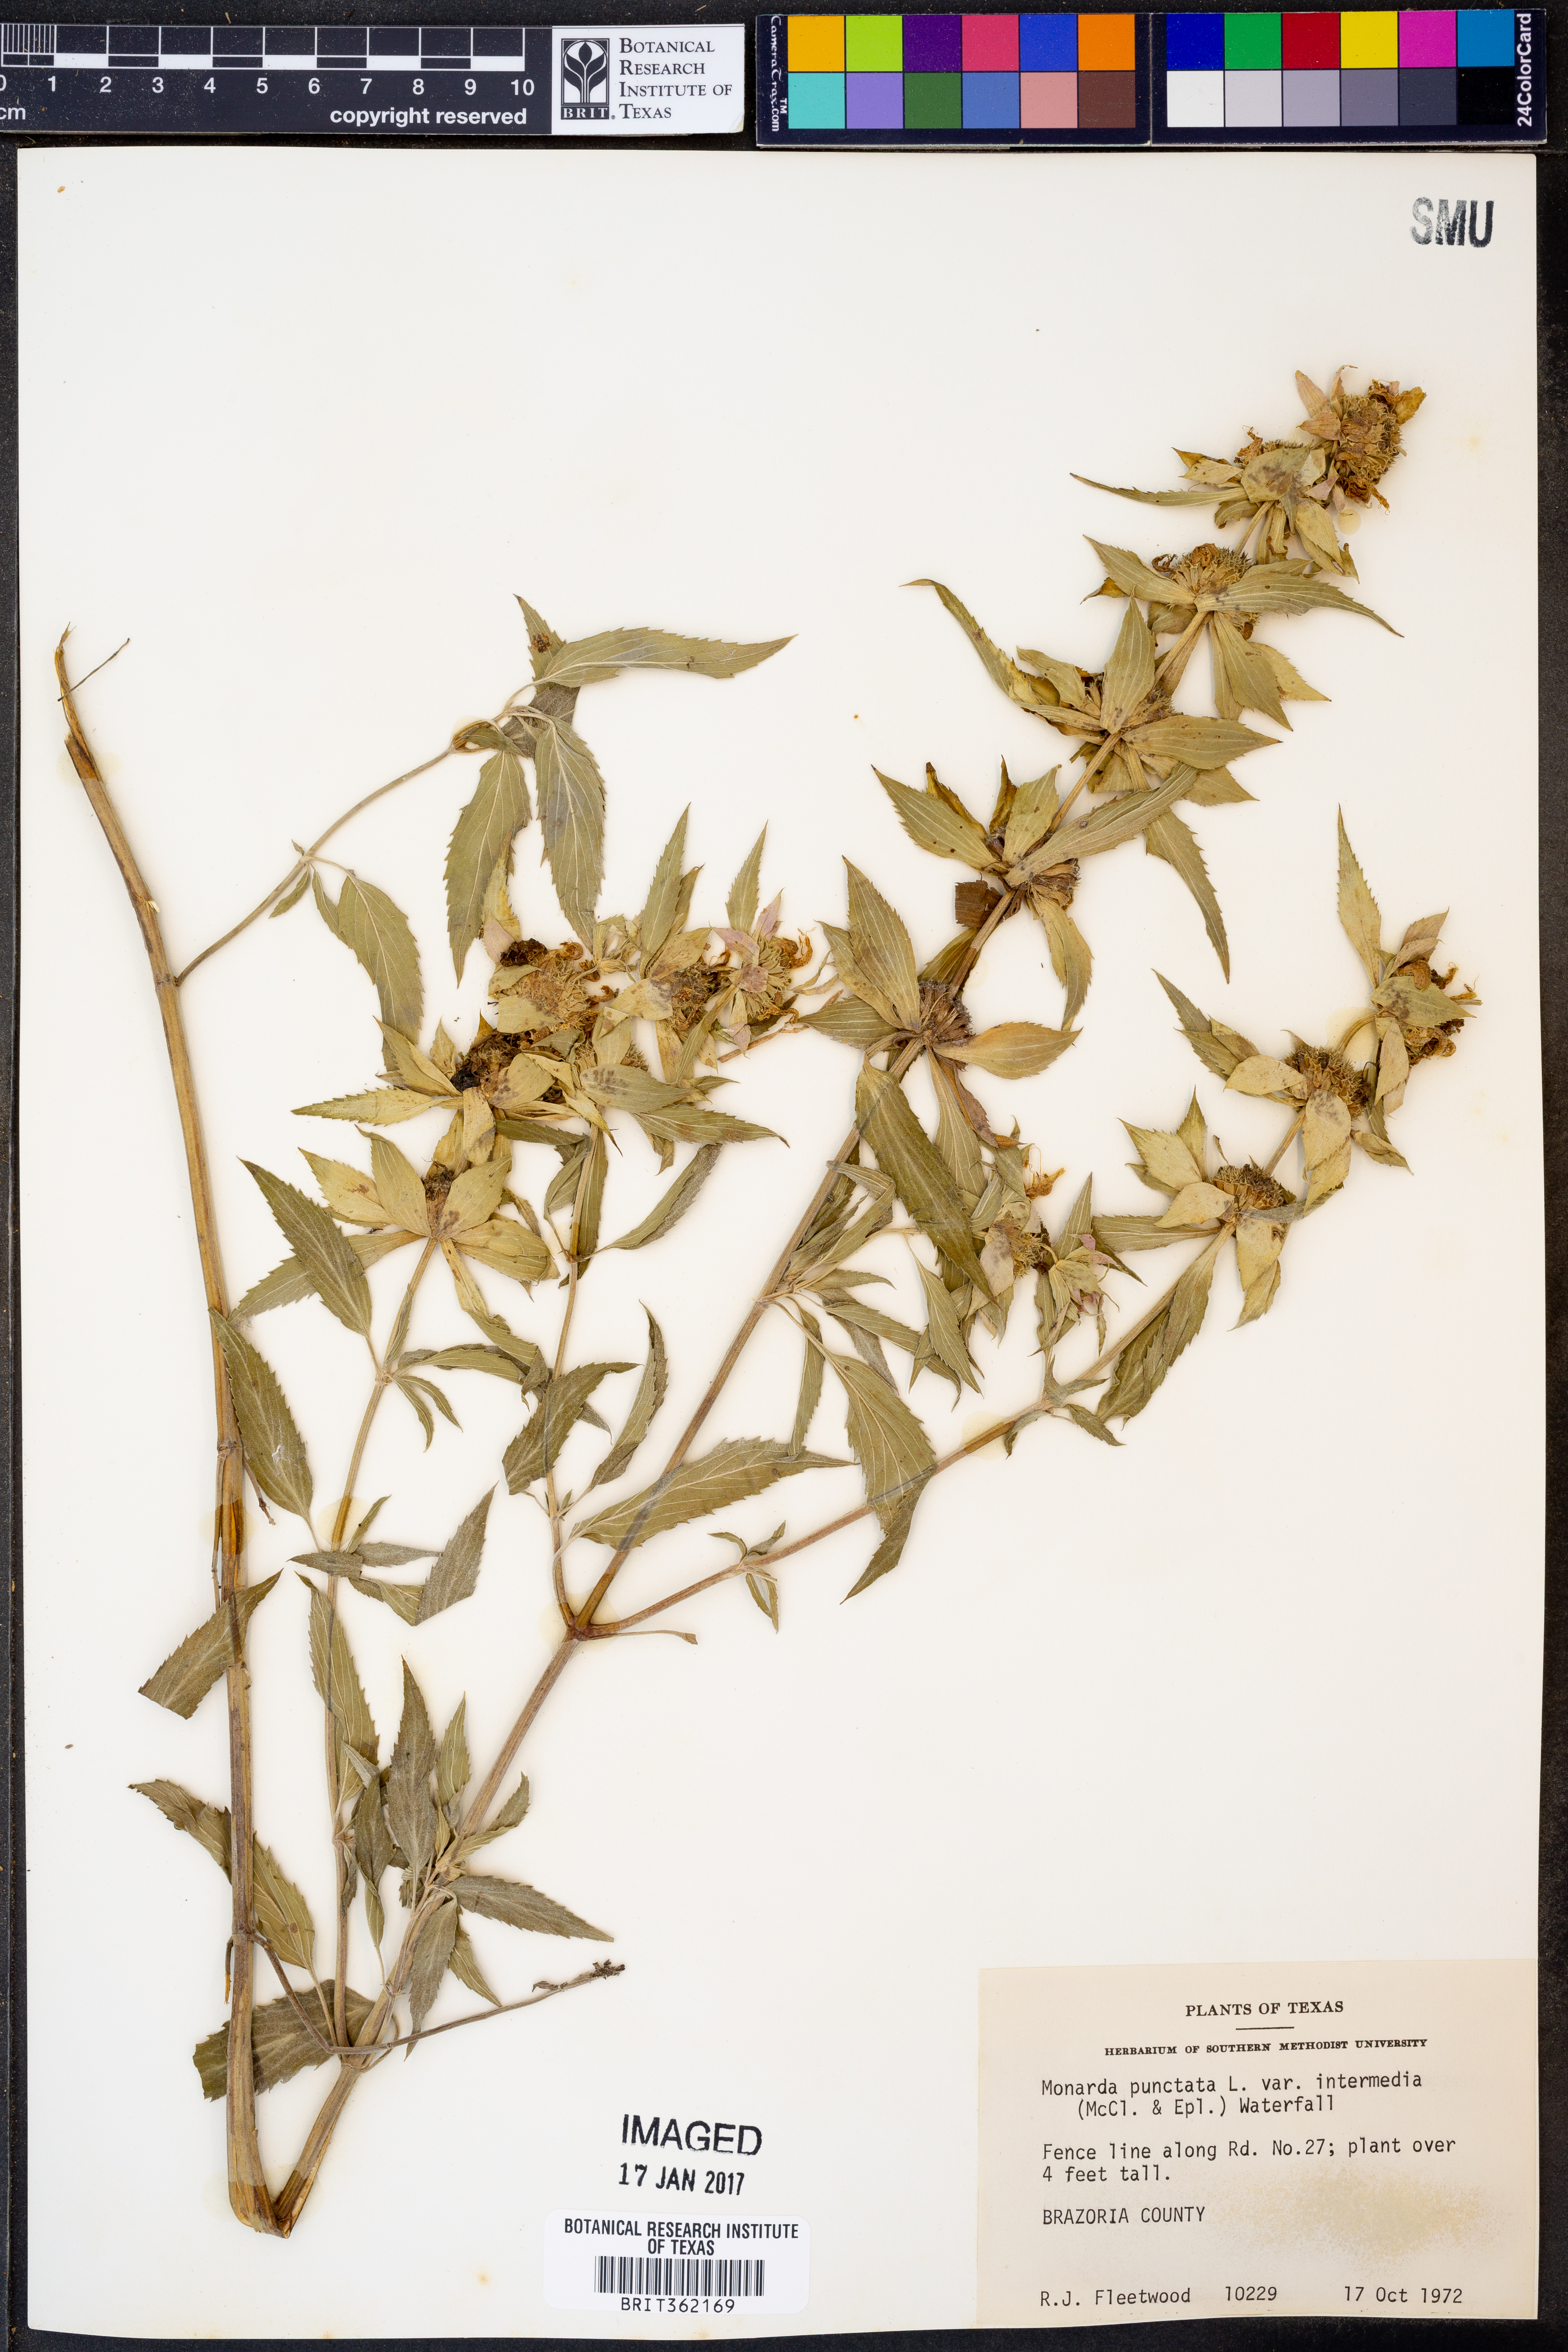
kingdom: Plantae
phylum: Tracheophyta
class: Magnoliopsida
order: Lamiales
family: Lamiaceae
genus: Monarda
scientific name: Monarda punctata
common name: Dotted monarda
